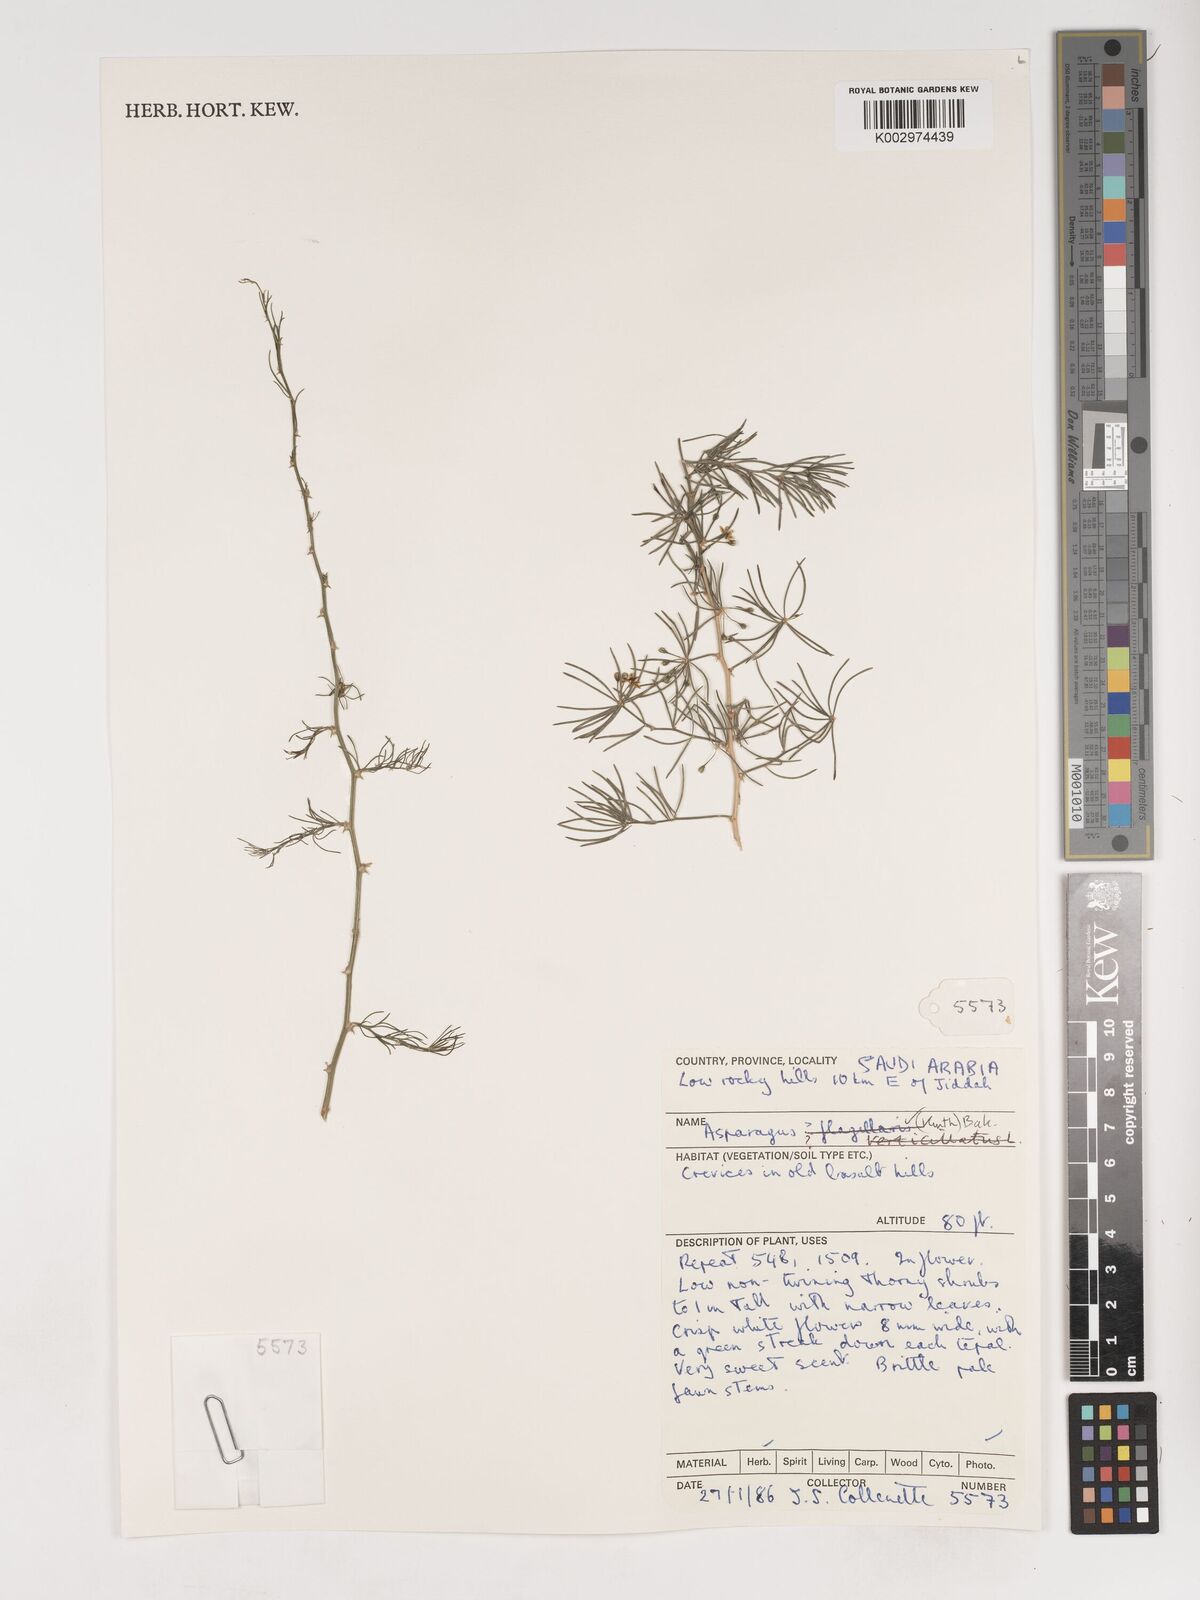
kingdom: Plantae
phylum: Tracheophyta
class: Liliopsida
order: Asparagales
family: Asparagaceae
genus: Asparagus
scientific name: Asparagus flagellaris
